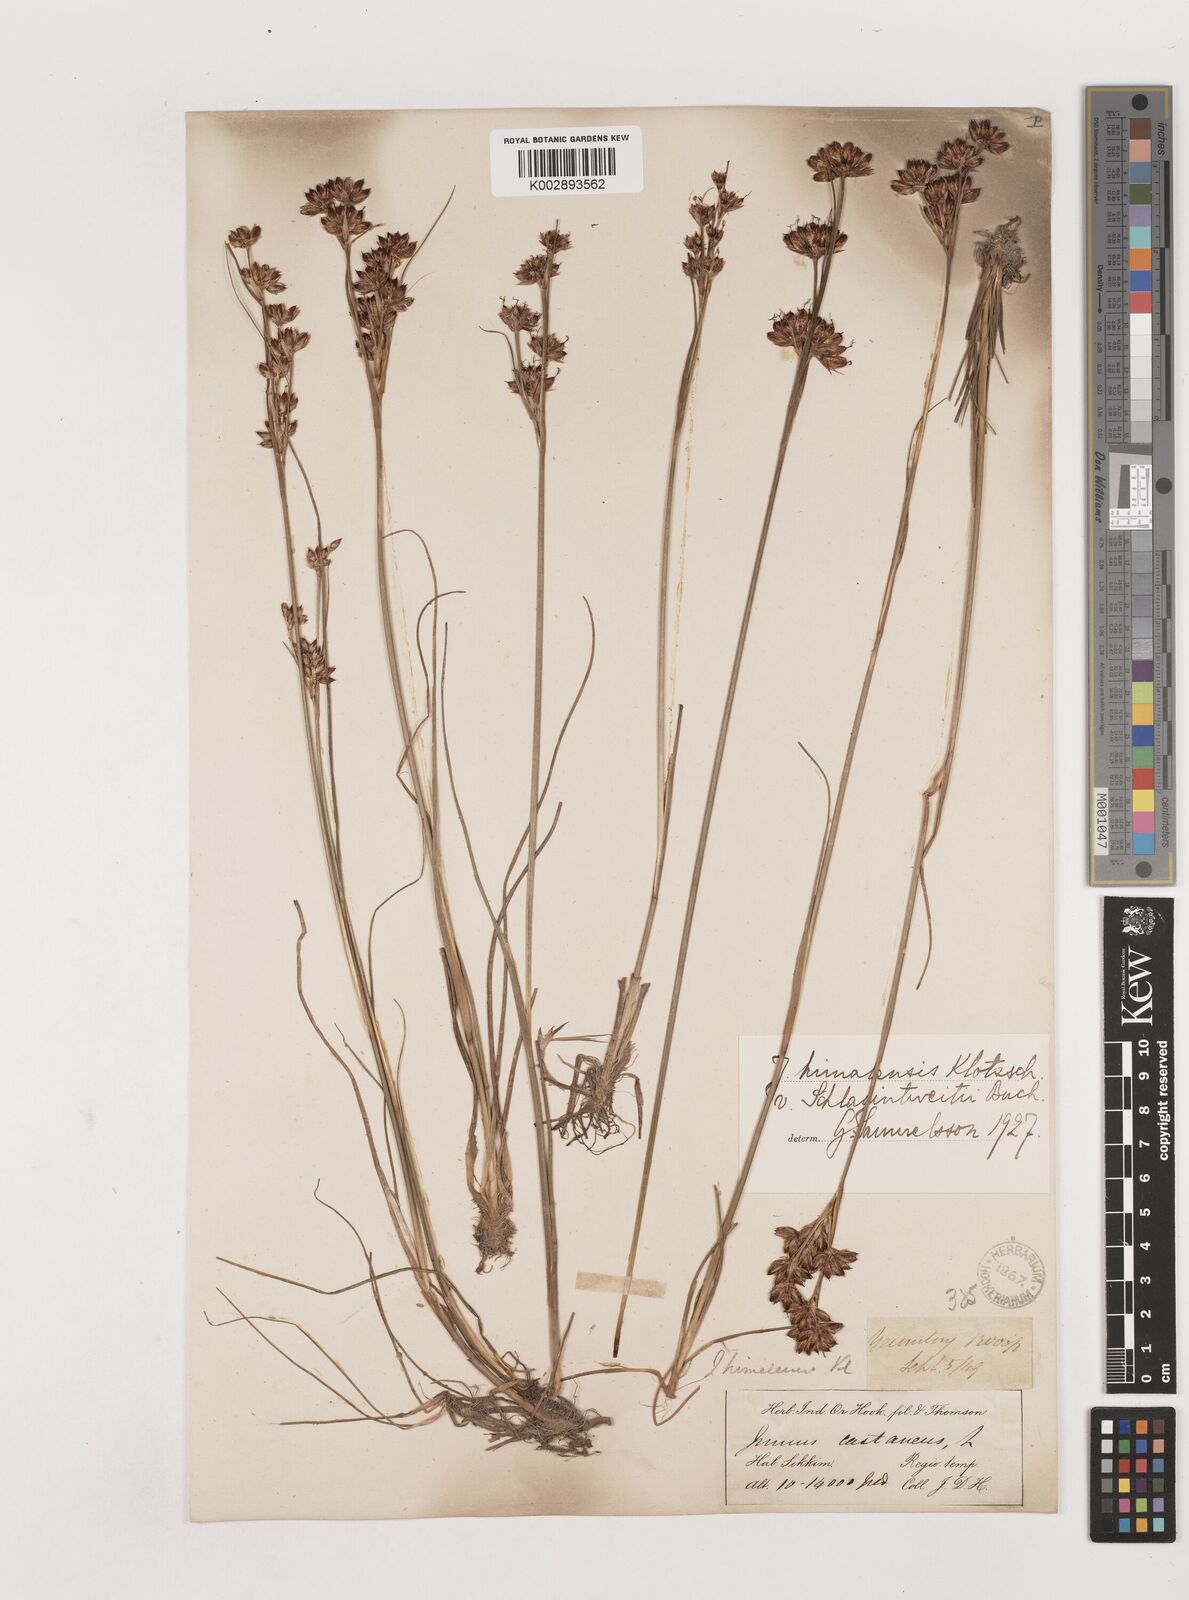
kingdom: Plantae
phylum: Tracheophyta
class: Liliopsida
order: Poales
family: Juncaceae
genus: Juncus
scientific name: Juncus himalensis
